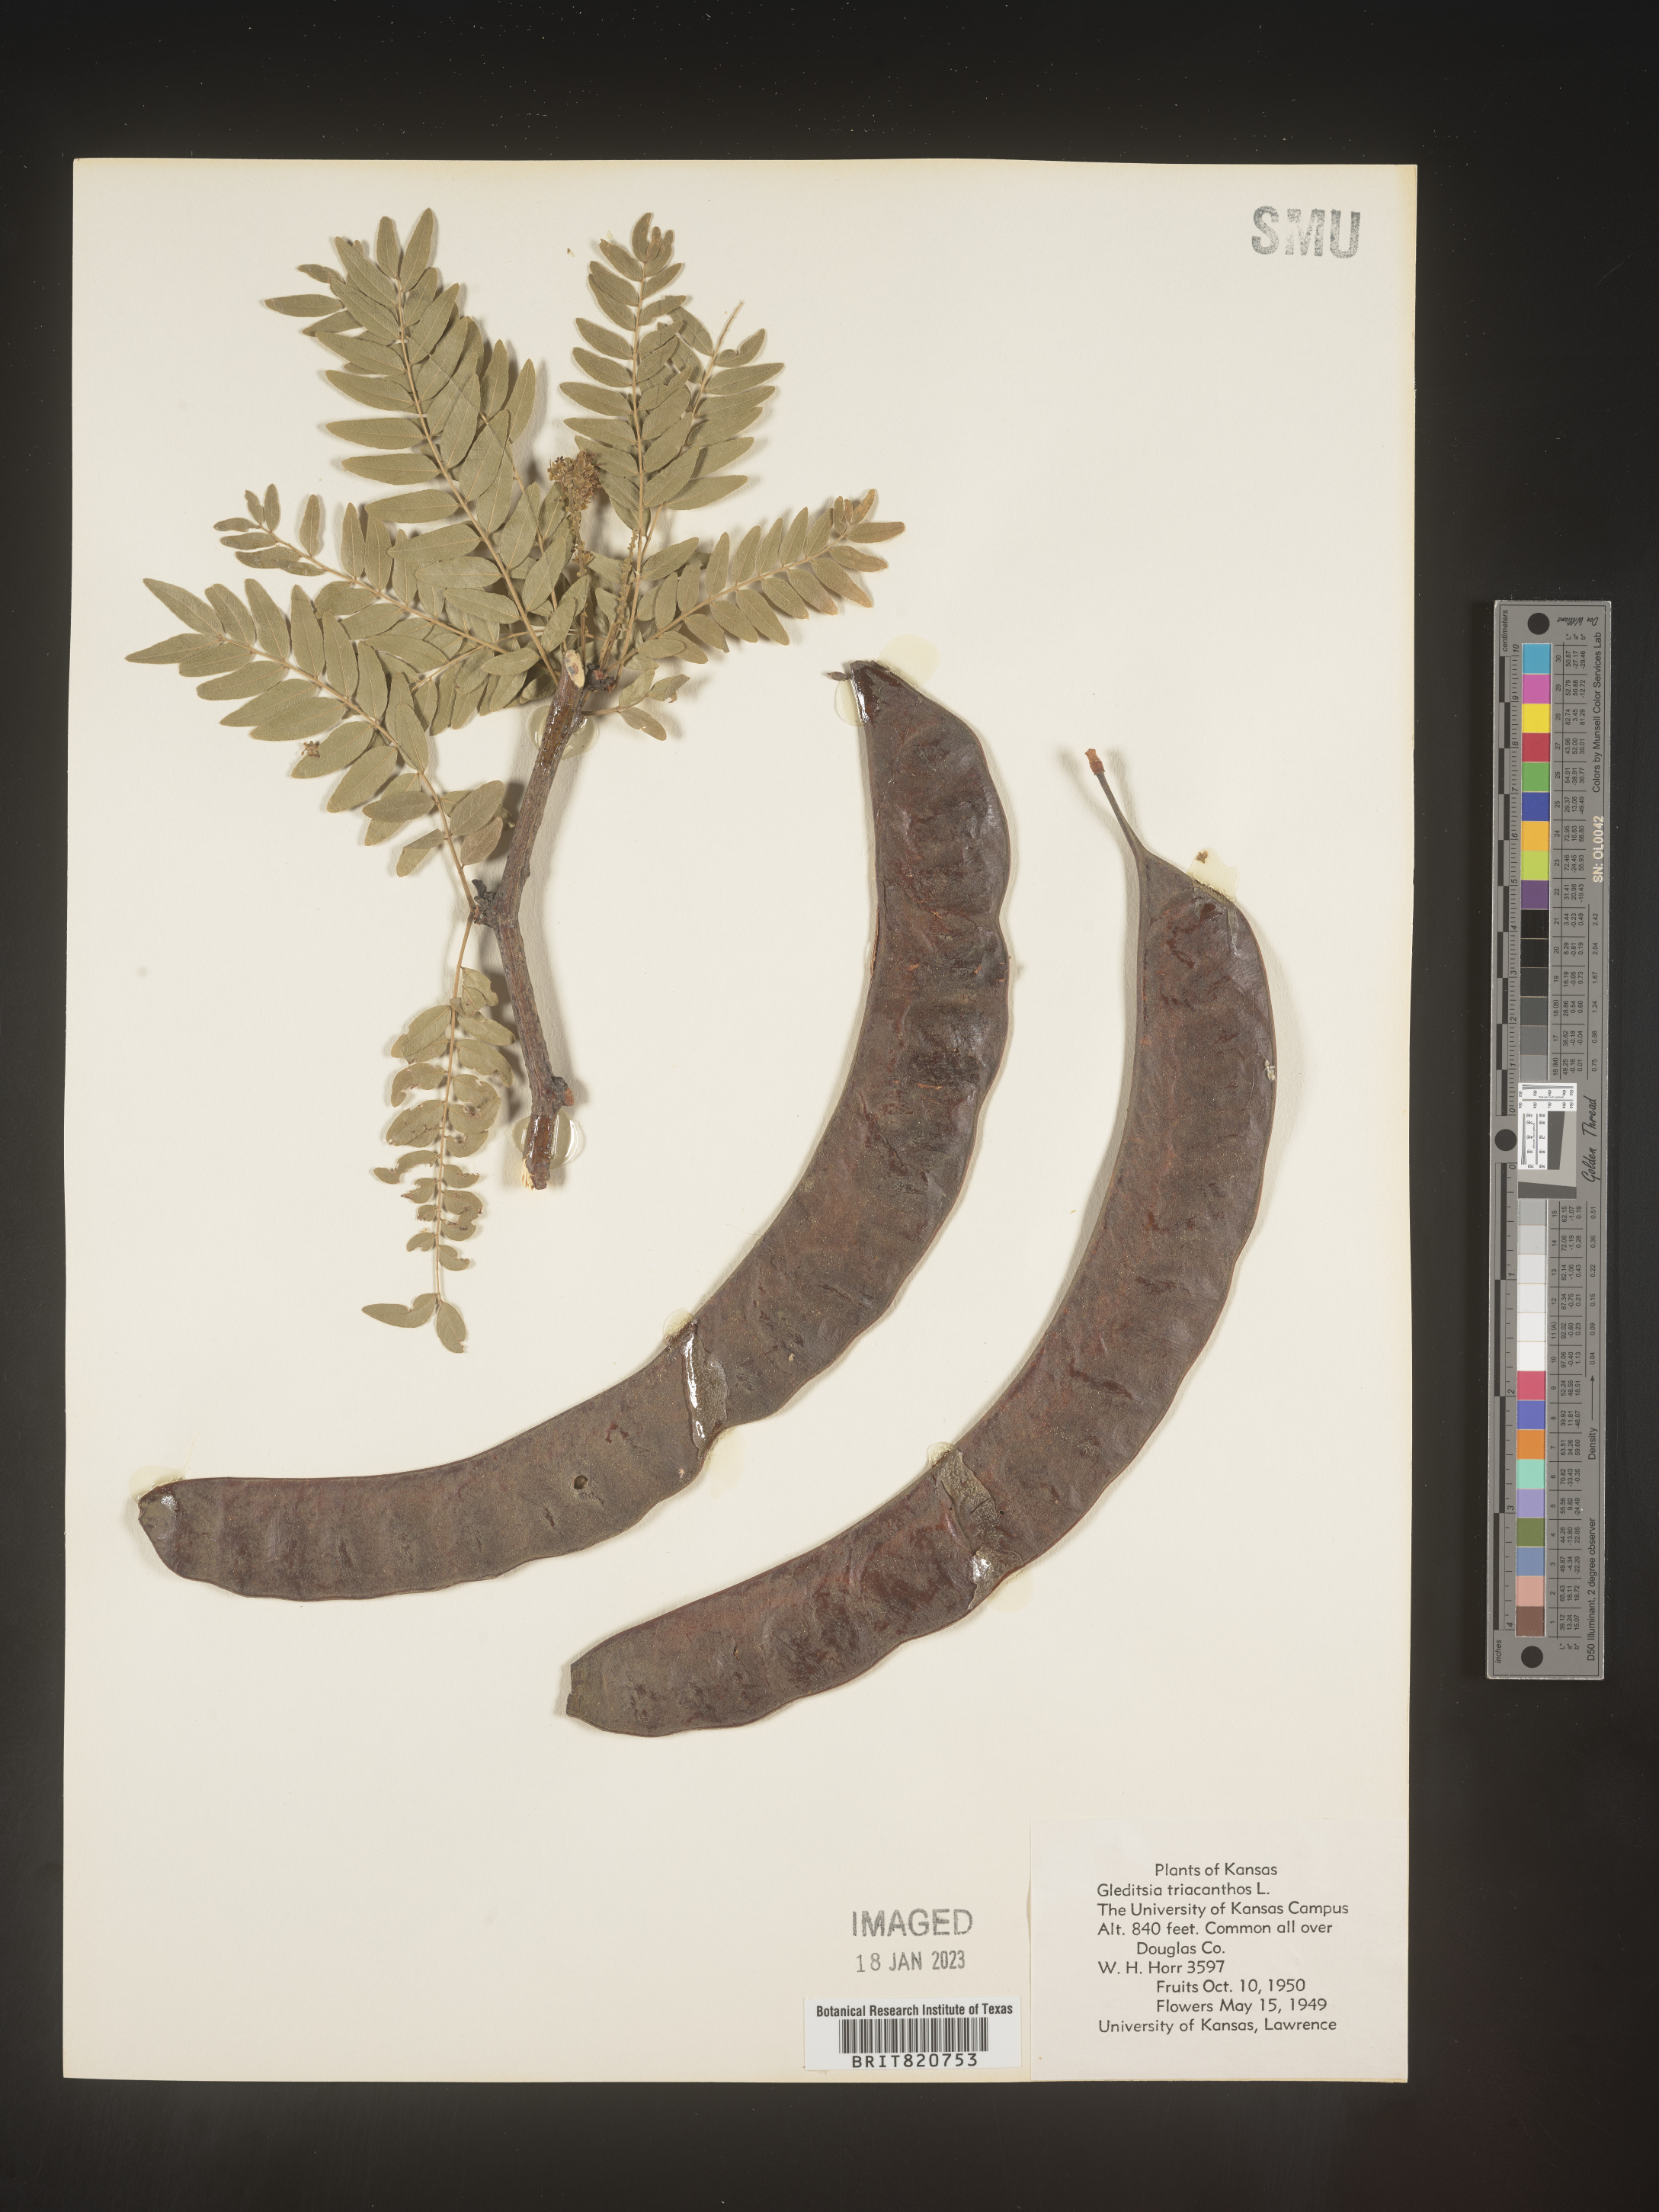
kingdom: Plantae
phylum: Tracheophyta
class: Magnoliopsida
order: Fabales
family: Fabaceae
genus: Gleditsia
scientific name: Gleditsia triacanthos
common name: Common honeylocust
